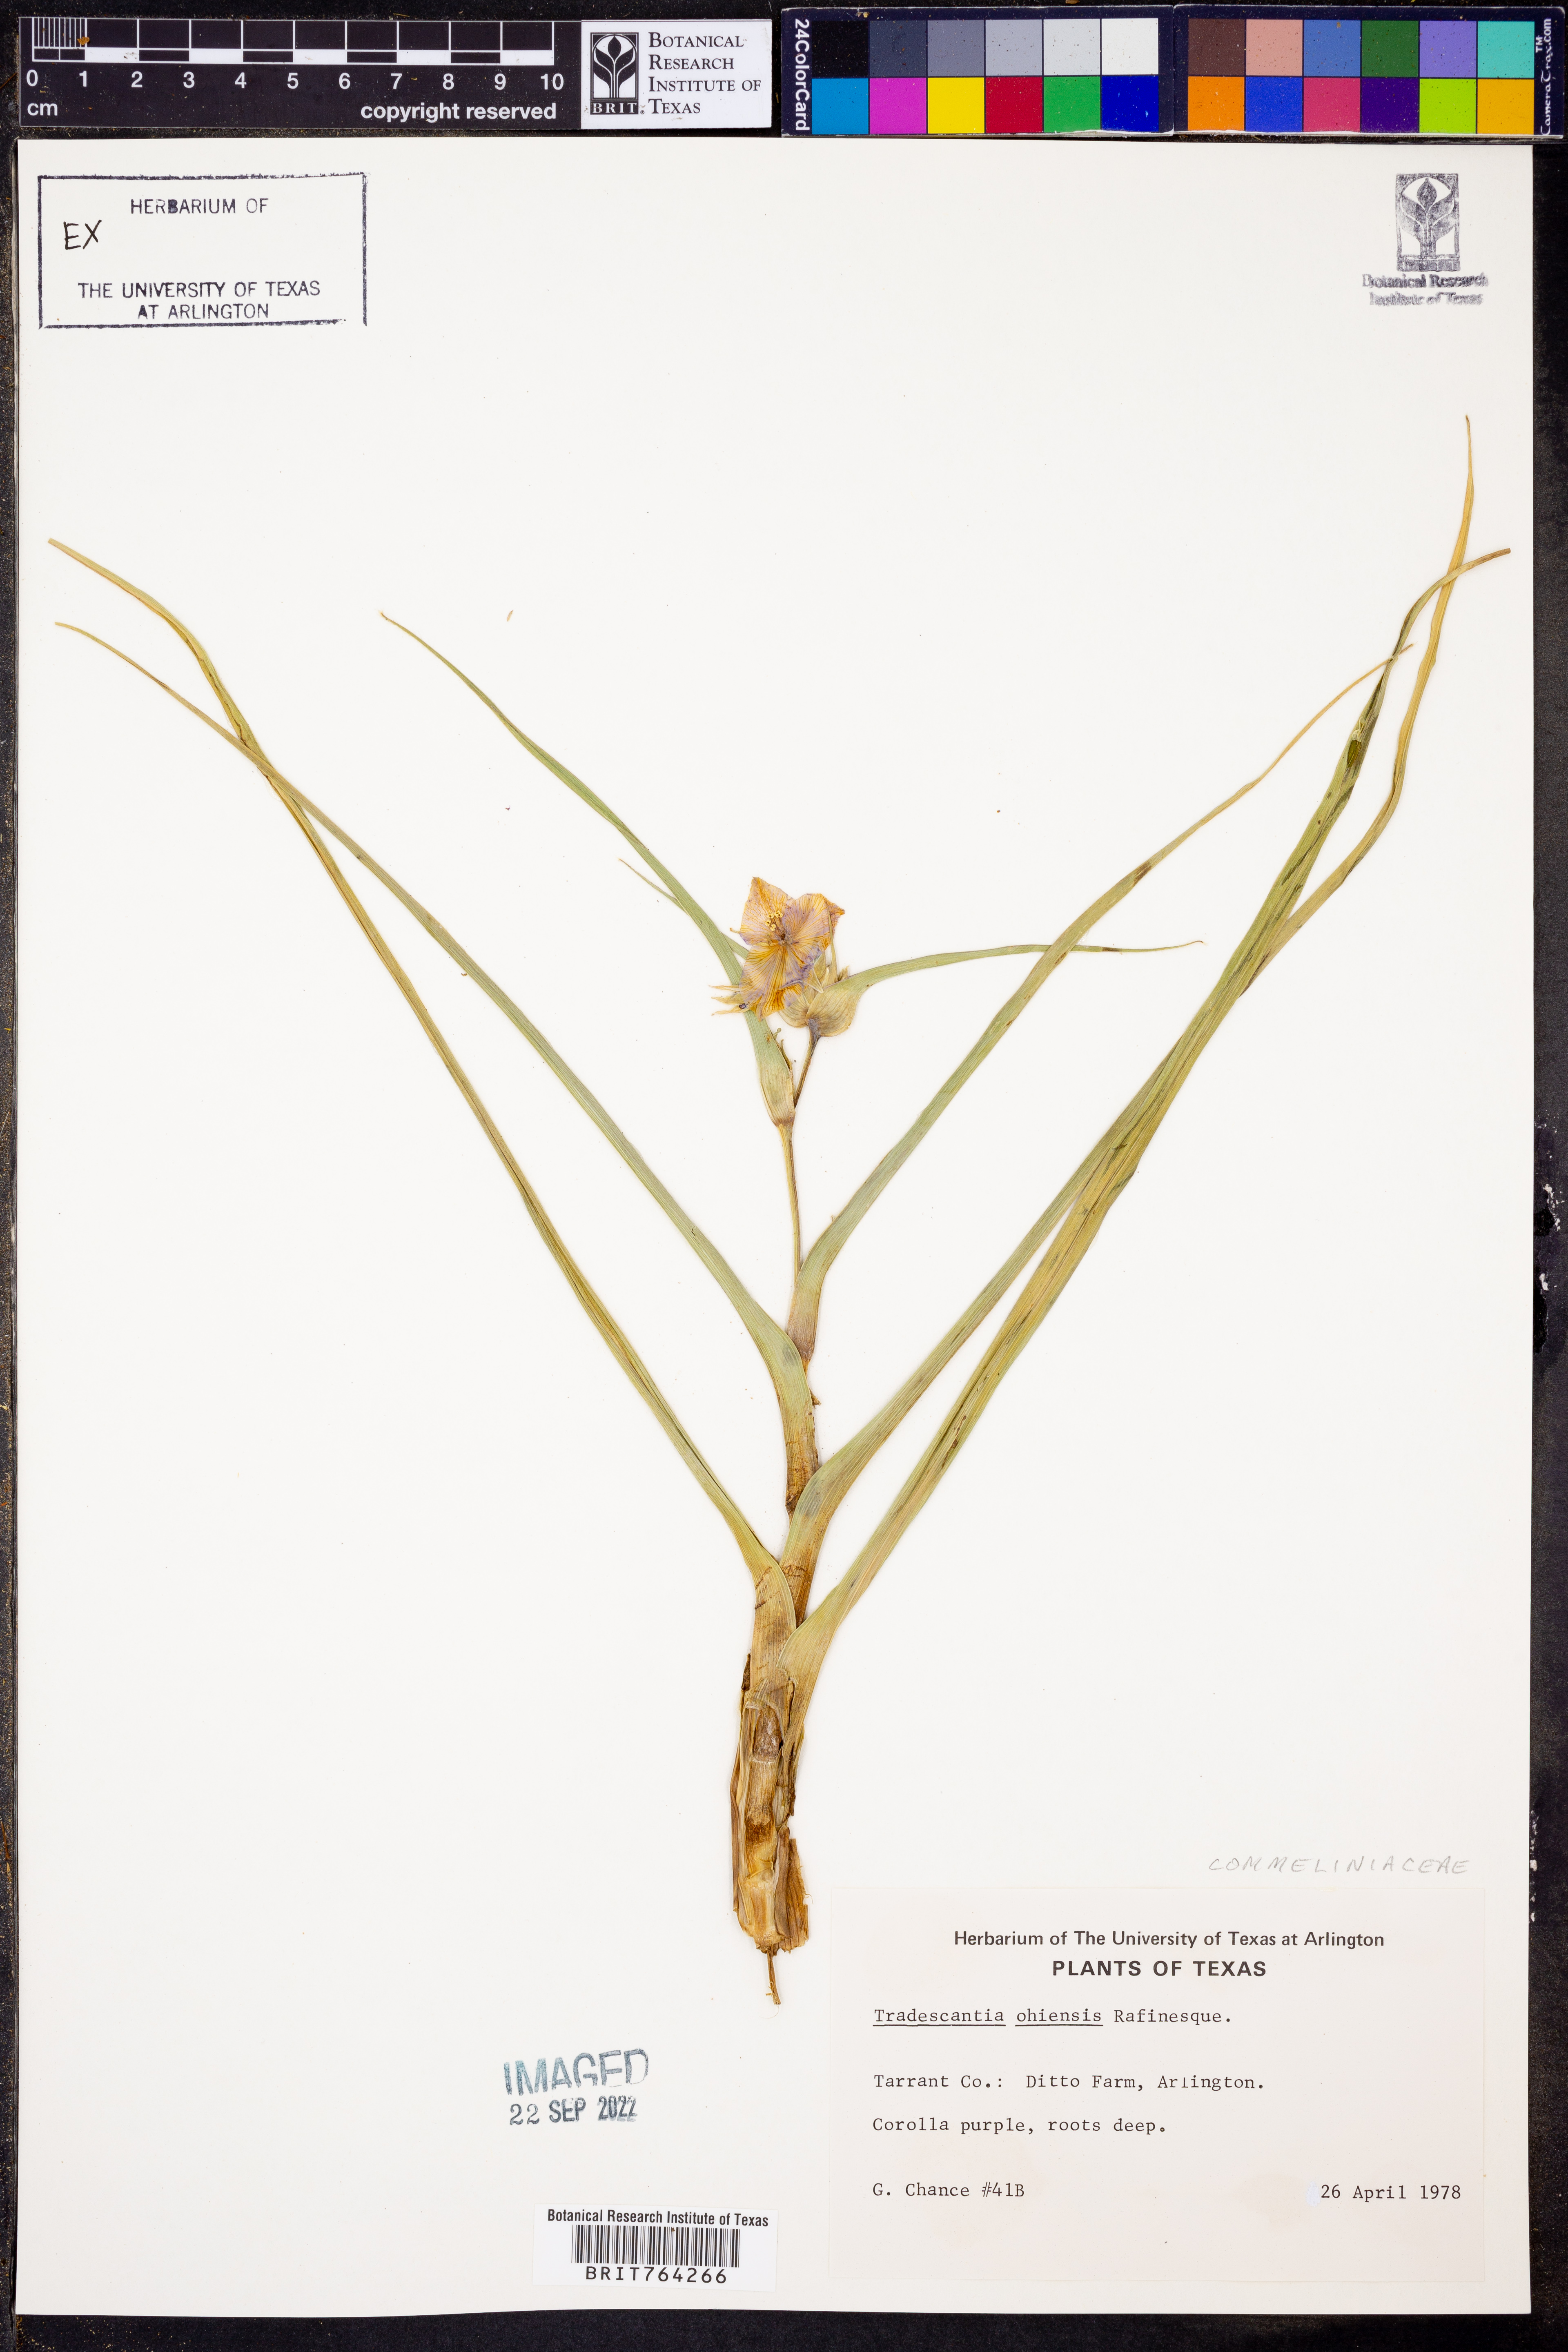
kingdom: Plantae
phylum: Tracheophyta
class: Liliopsida
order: Commelinales
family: Commelinaceae
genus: Tradescantia
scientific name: Tradescantia ohiensis
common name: Ohio spiderwort
